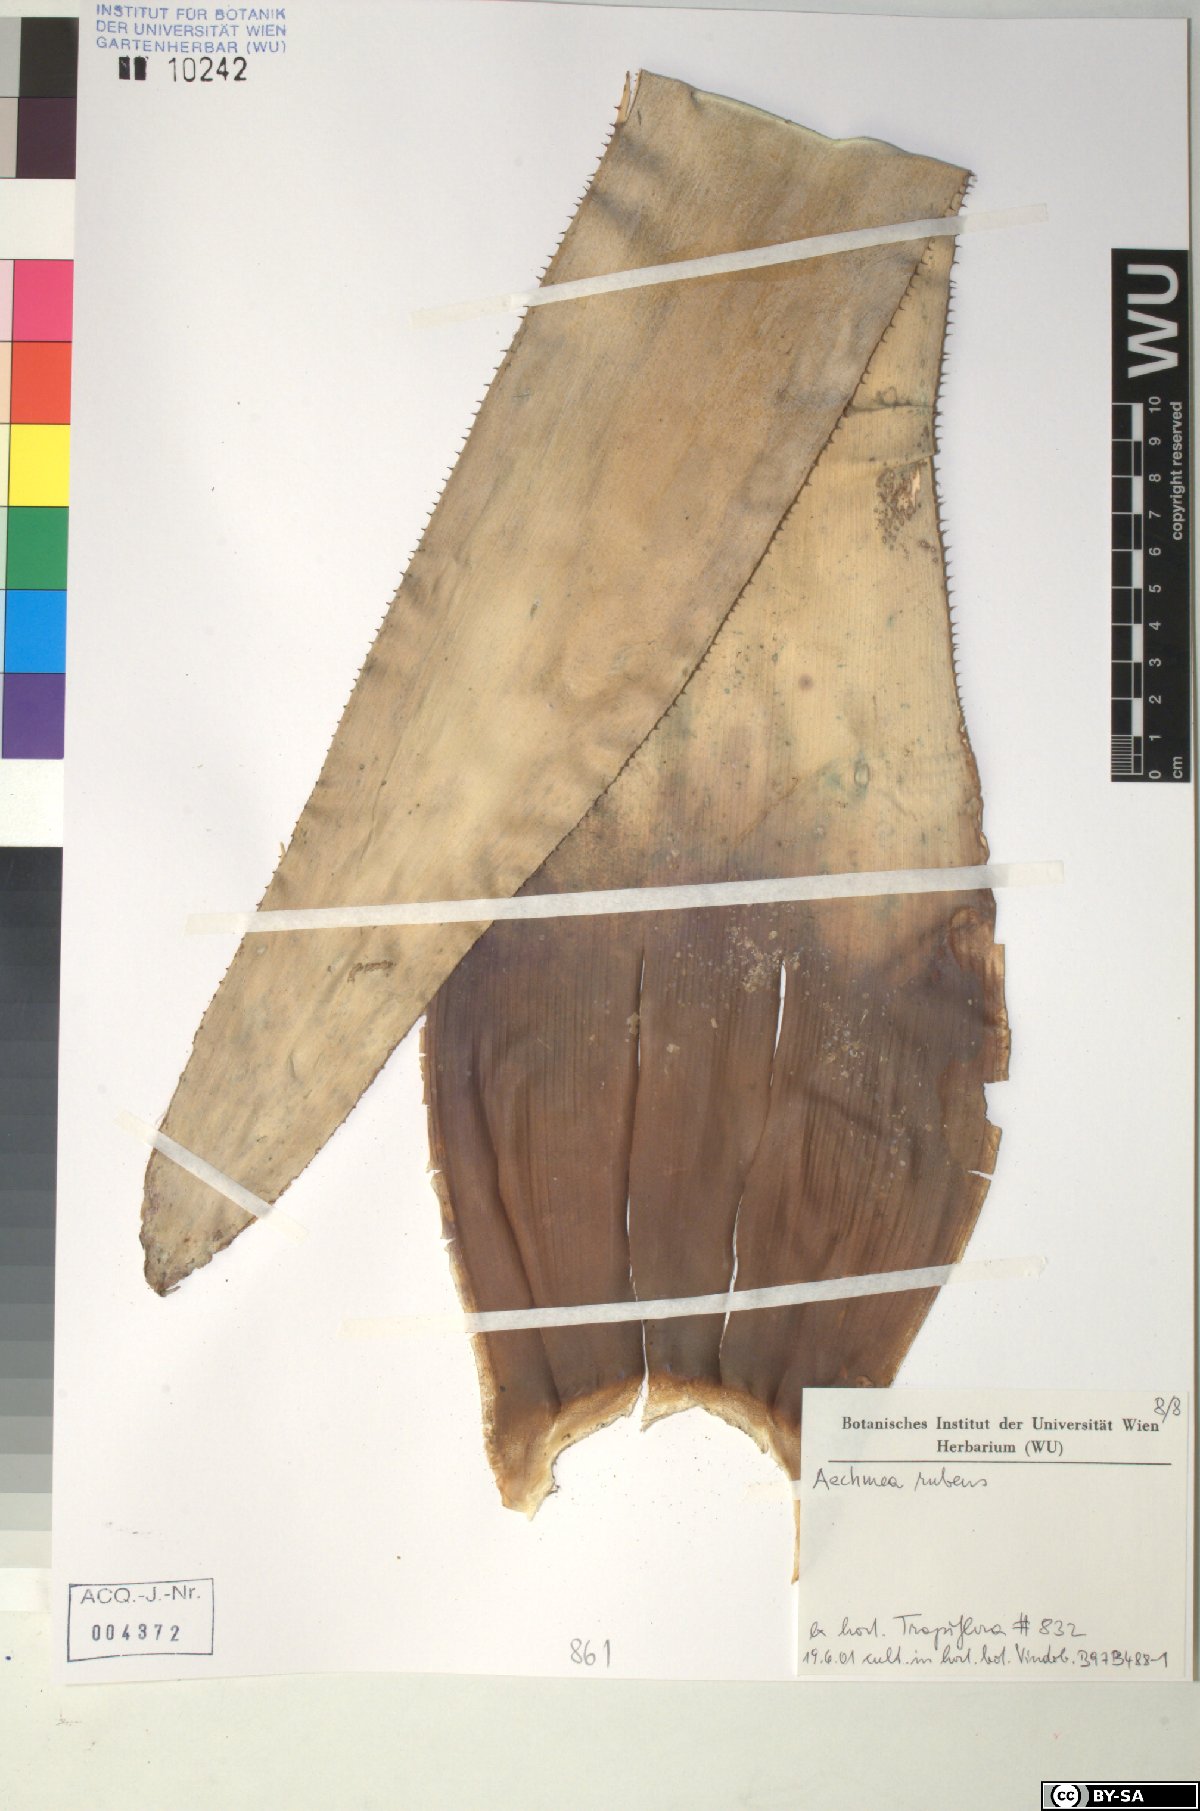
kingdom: Plantae
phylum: Tracheophyta
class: Liliopsida
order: Poales
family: Bromeliaceae
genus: Aechmea
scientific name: Aechmea rubens
